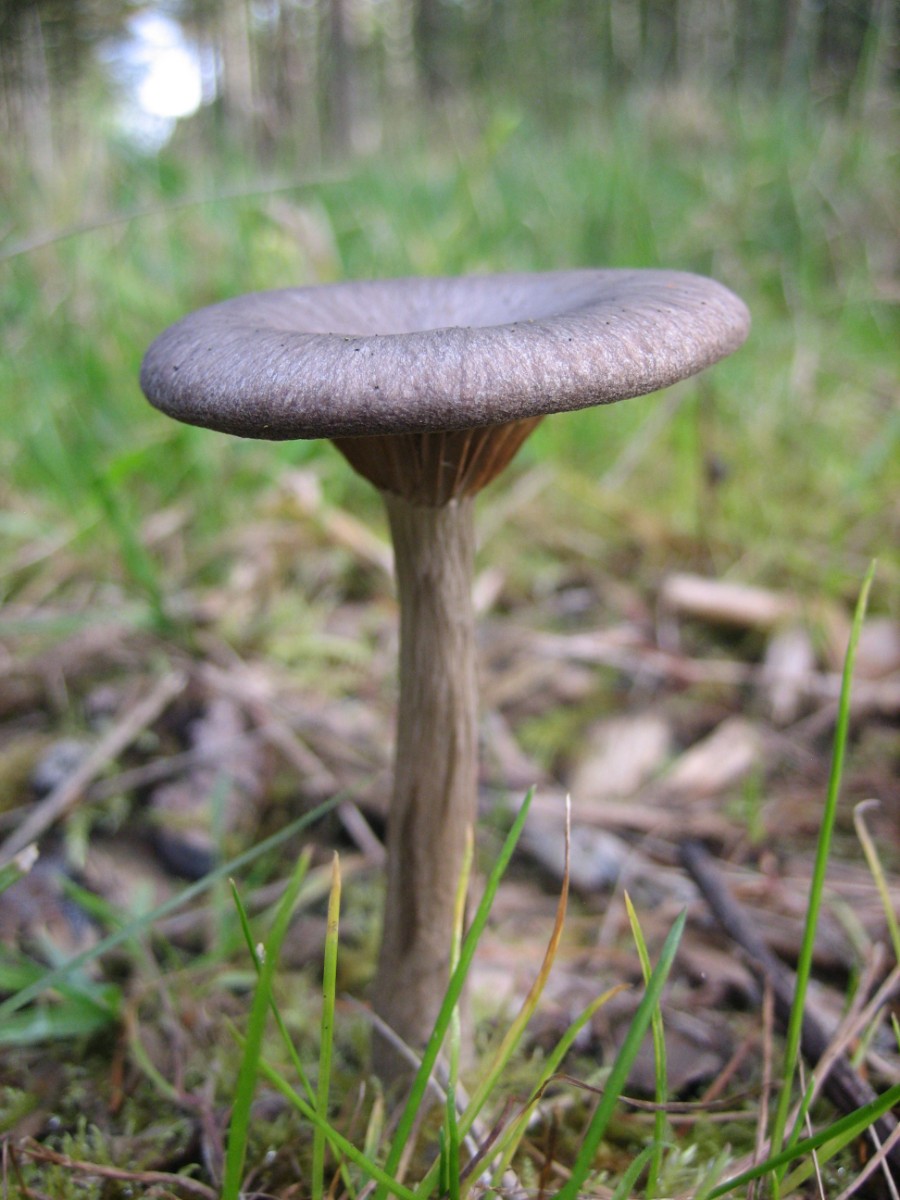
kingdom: Fungi
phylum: Basidiomycota
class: Agaricomycetes
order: Agaricales
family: Pseudoclitocybaceae
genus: Pseudoclitocybe
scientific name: Pseudoclitocybe cyathiformis
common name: almindelig bægertragthat
